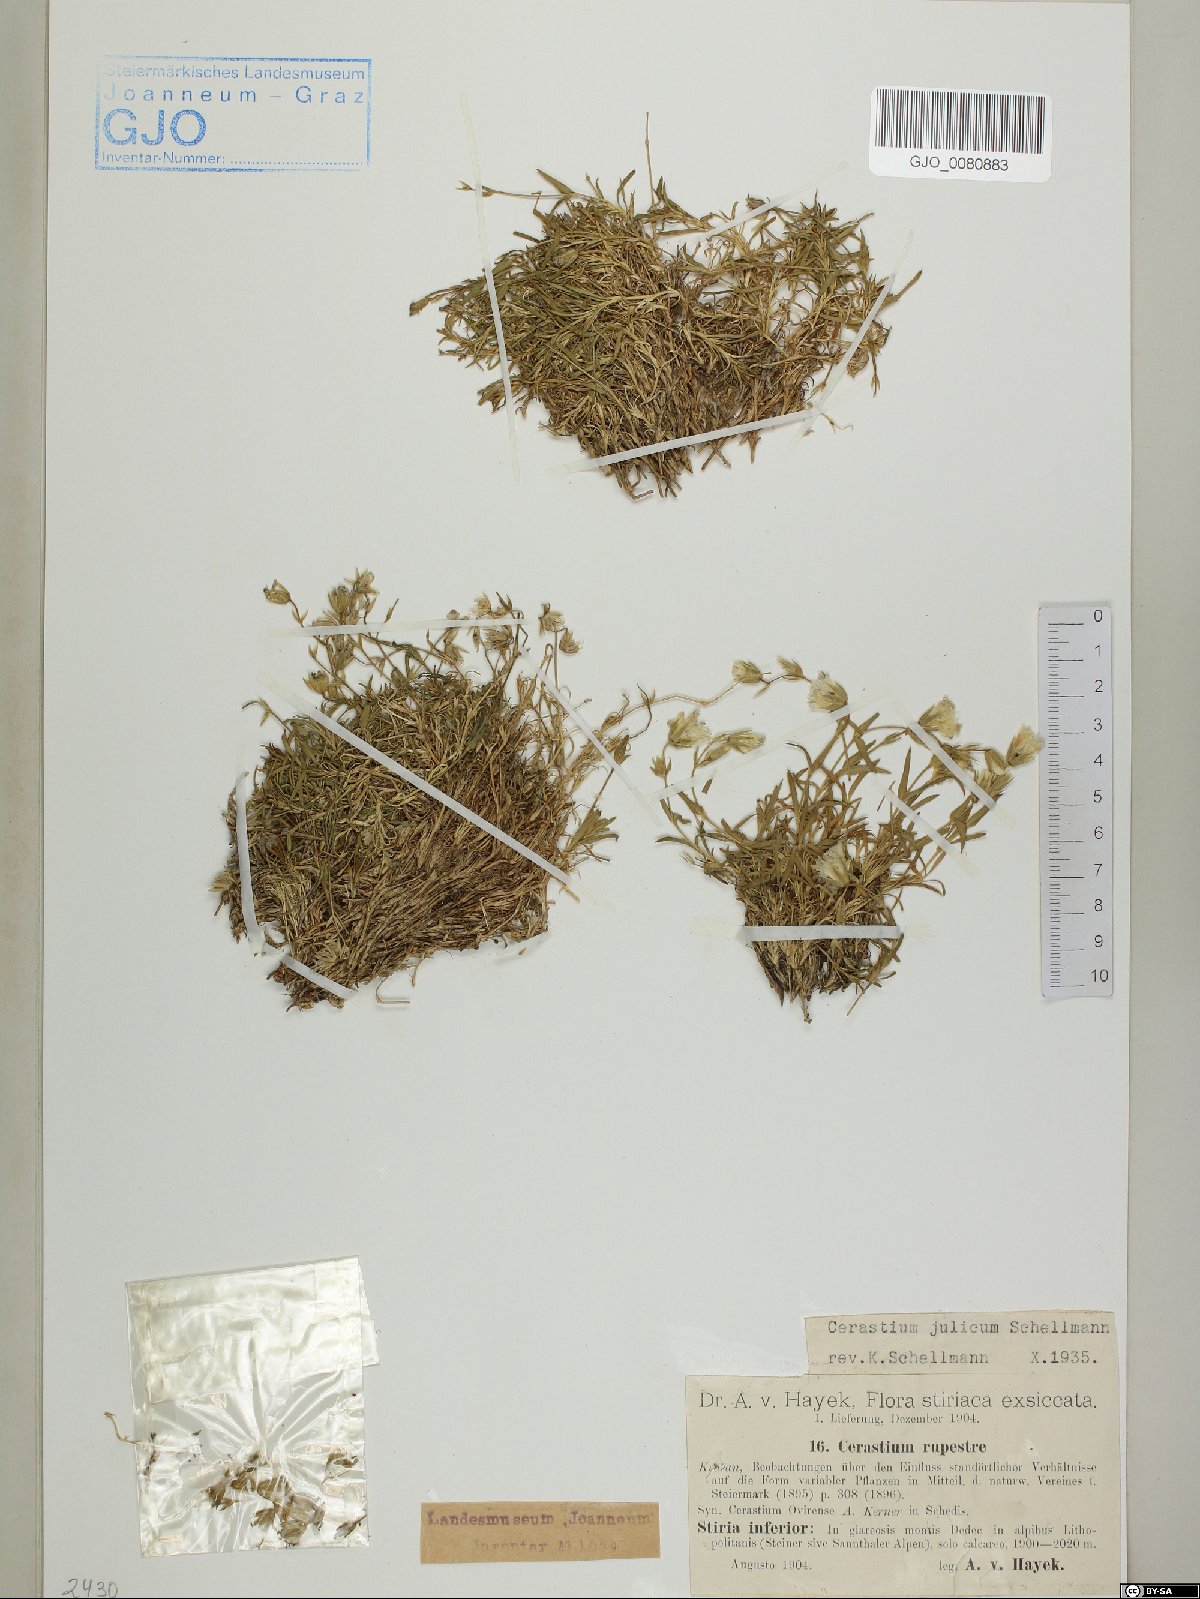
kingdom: Plantae
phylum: Tracheophyta
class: Magnoliopsida
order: Caryophyllales
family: Caryophyllaceae
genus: Cerastium
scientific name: Cerastium julicum
